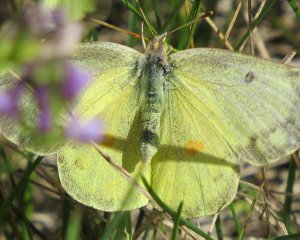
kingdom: Animalia
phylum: Arthropoda
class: Insecta
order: Lepidoptera
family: Pieridae
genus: Colias
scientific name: Colias philodice
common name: Clouded Sulphur
